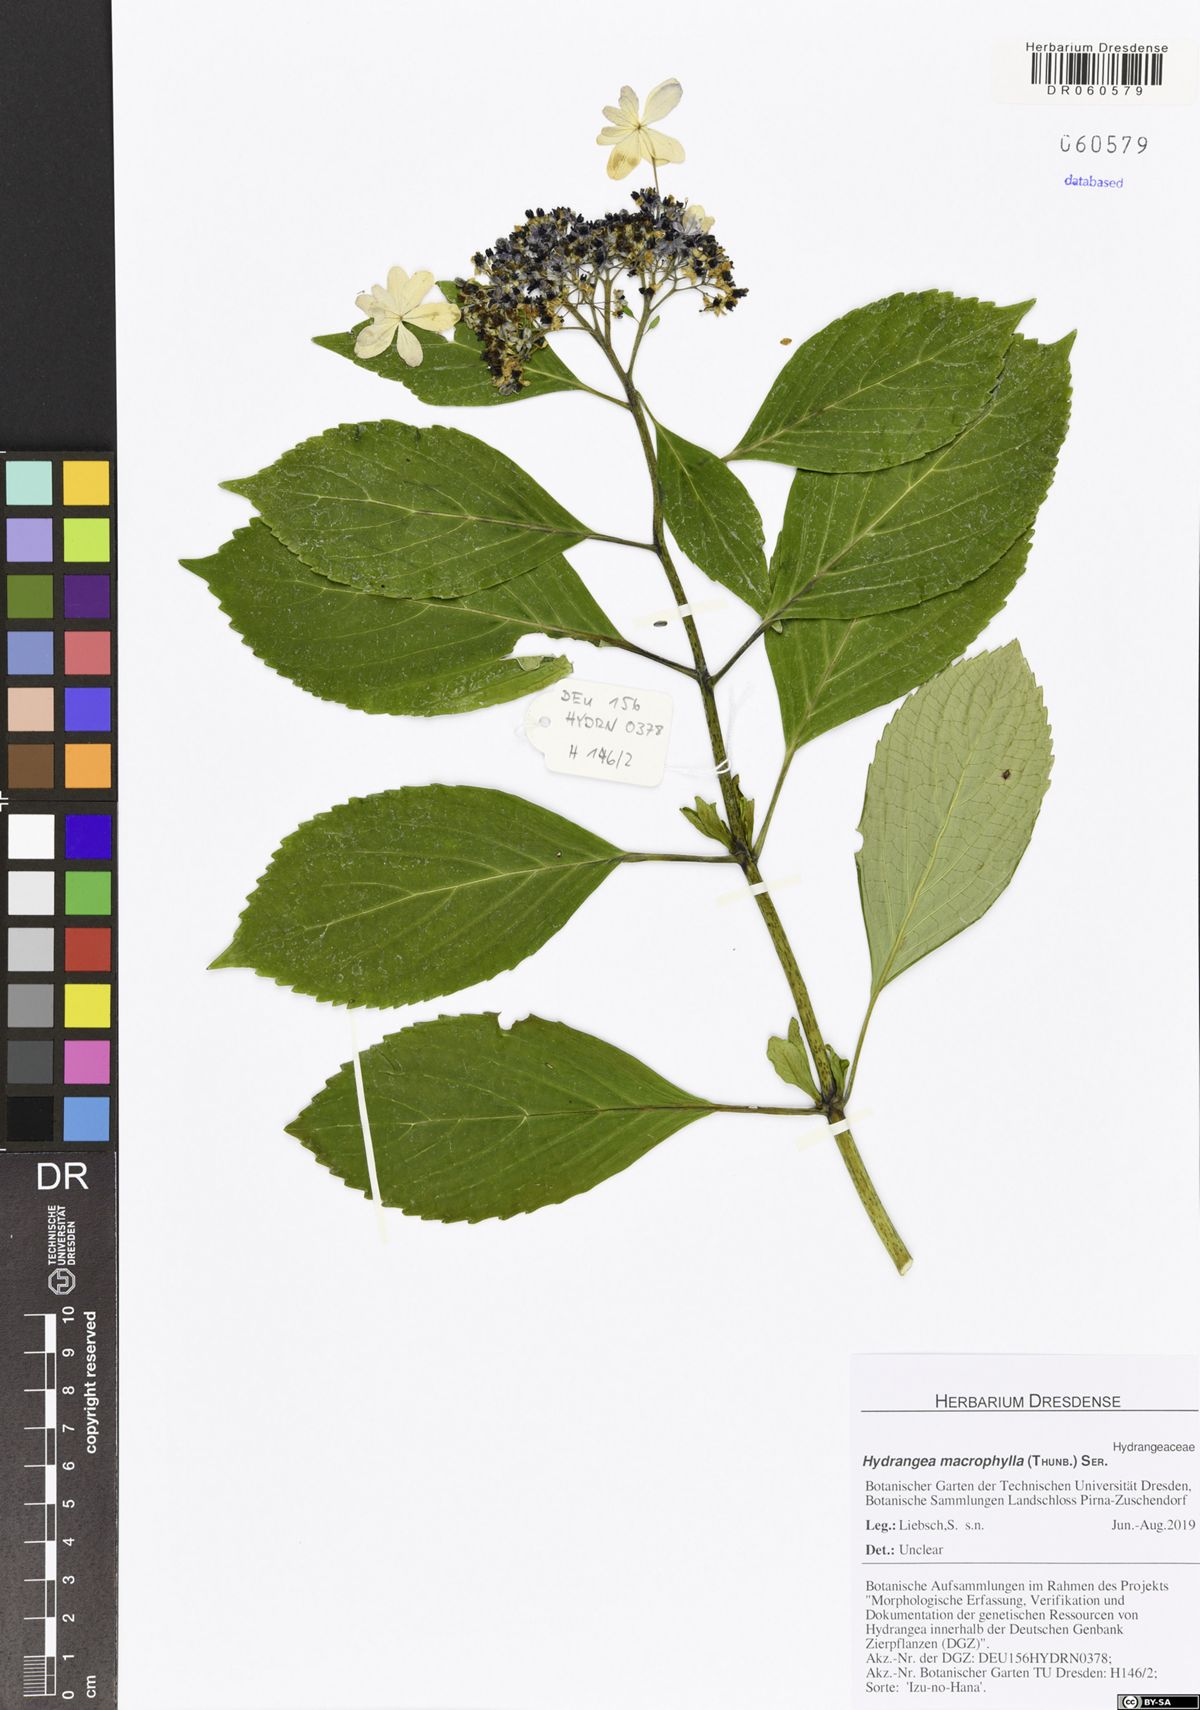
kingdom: Plantae
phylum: Tracheophyta
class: Magnoliopsida
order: Cornales
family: Hydrangeaceae
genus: Hydrangea
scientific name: Hydrangea macrophylla
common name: Hydrangea
